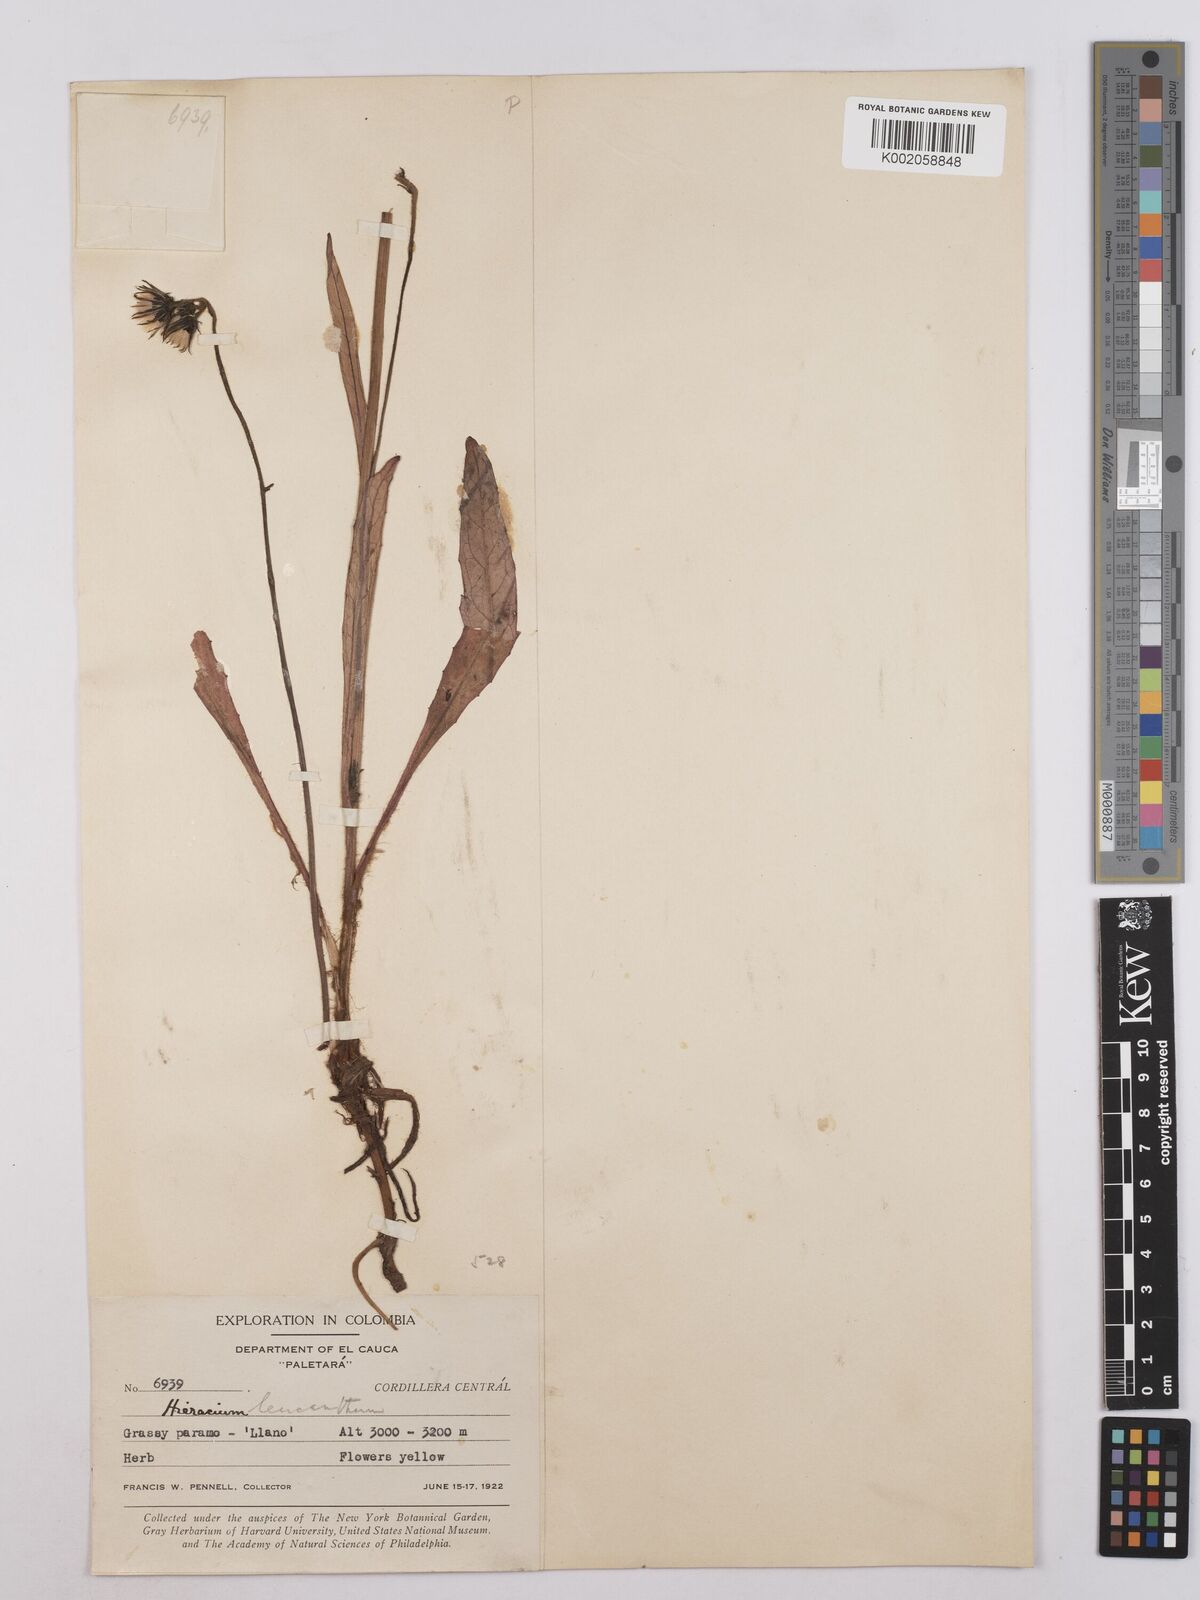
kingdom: Plantae
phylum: Tracheophyta
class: Magnoliopsida
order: Asterales
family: Asteraceae
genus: Hieracium
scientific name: Hieracium leucanthemum
